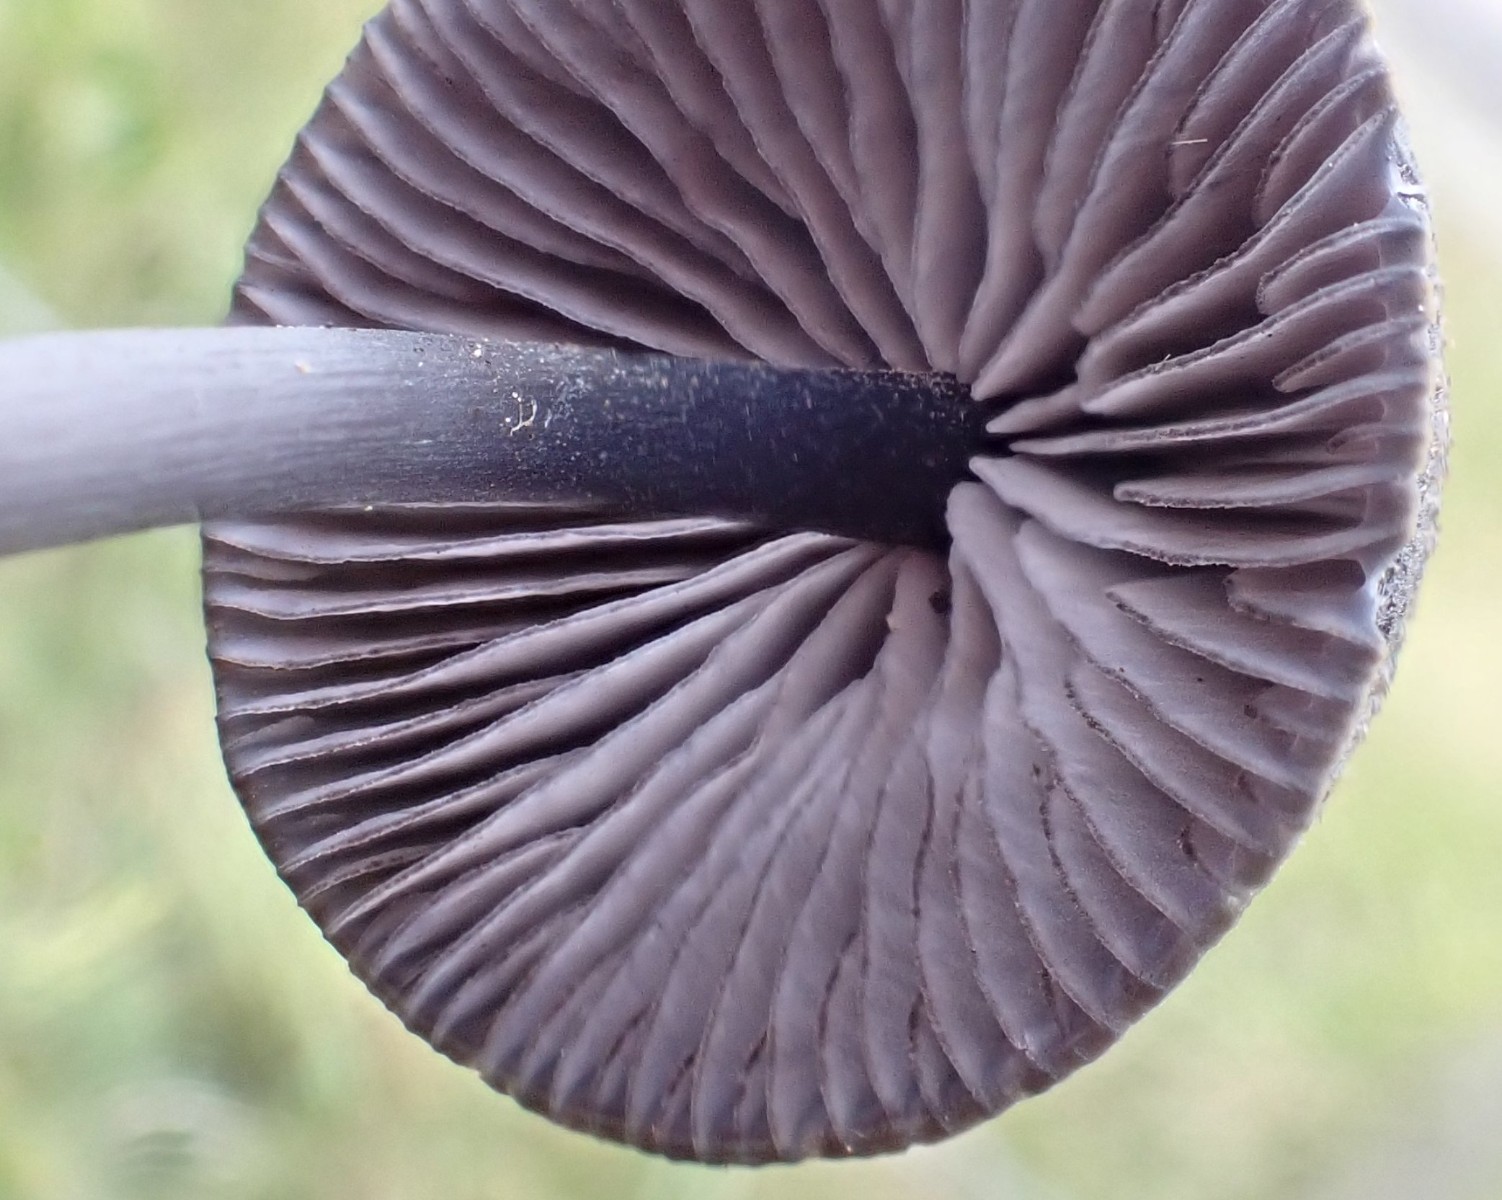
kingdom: Fungi
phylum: Basidiomycota
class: Agaricomycetes
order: Agaricales
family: Entolomataceae
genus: Entoloma
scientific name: Entoloma
